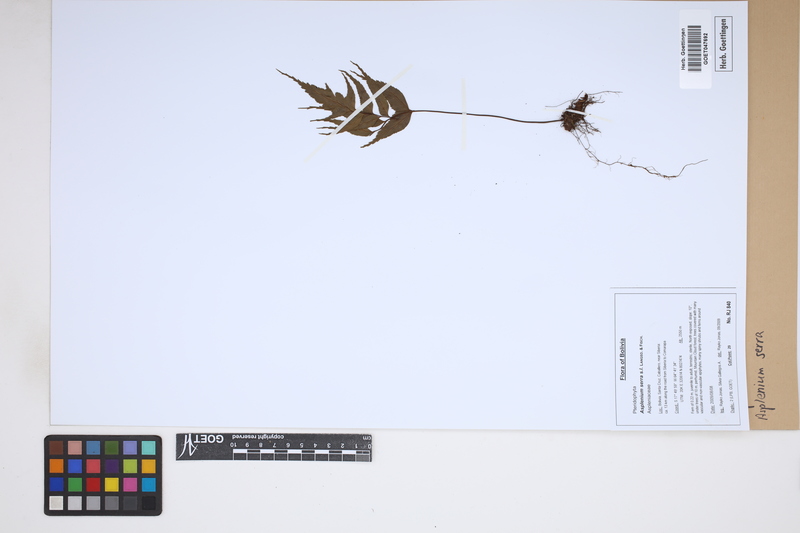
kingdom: Plantae
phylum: Tracheophyta
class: Polypodiopsida
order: Polypodiales
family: Aspleniaceae
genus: Asplenium
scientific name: Asplenium serra
